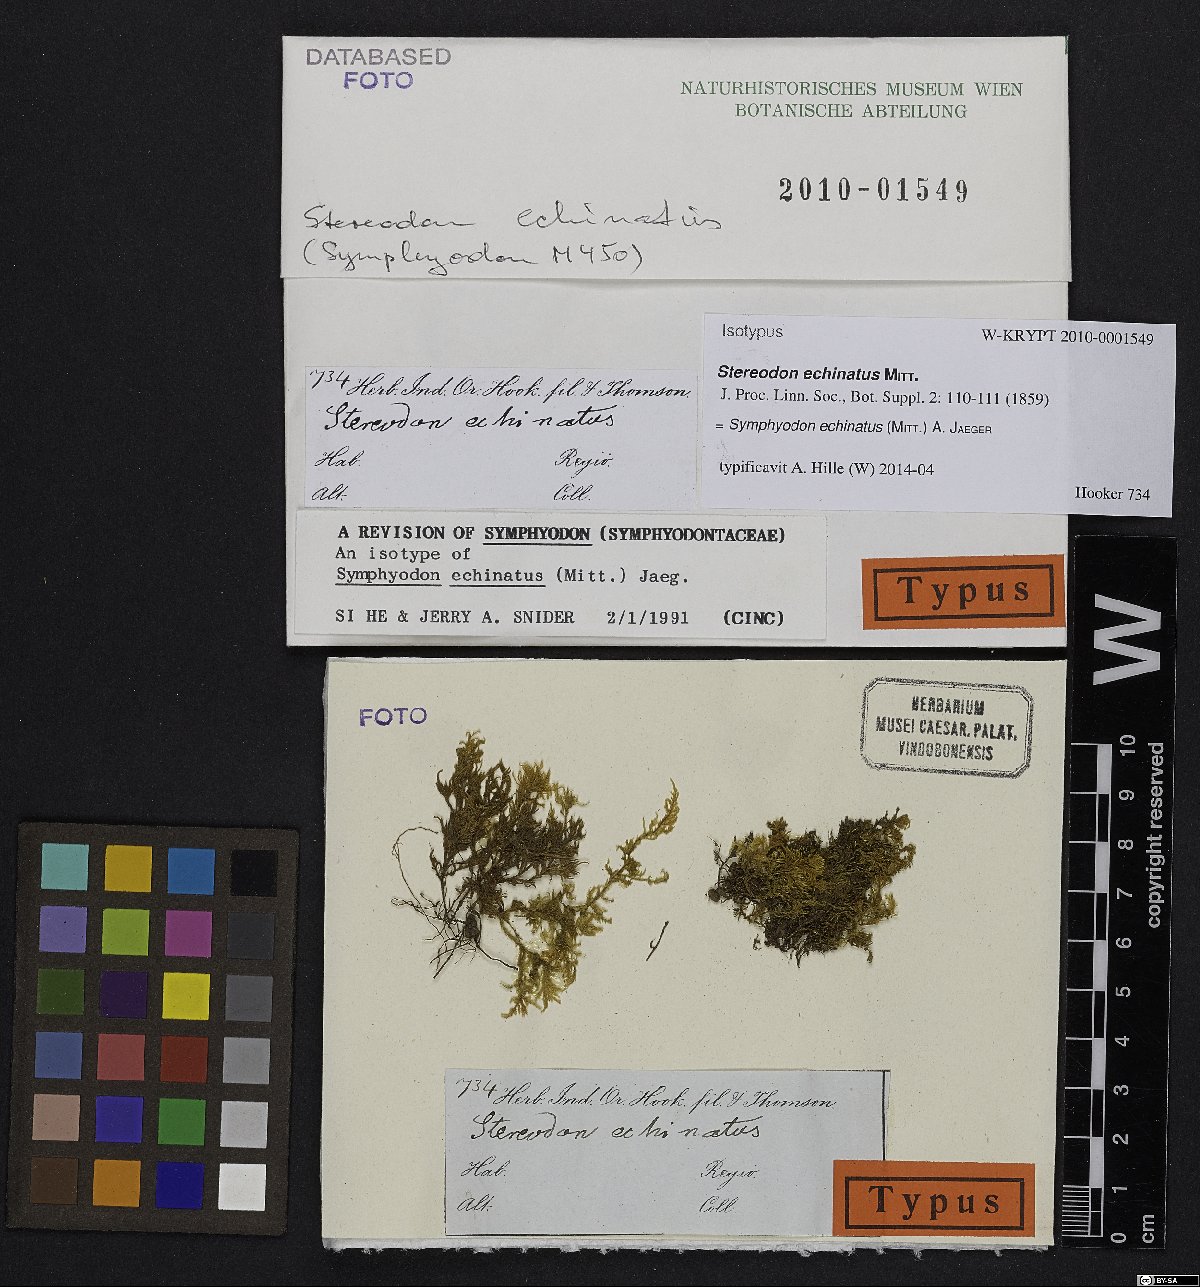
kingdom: Plantae
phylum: Bryophyta
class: Bryopsida
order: Hypnales
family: Symphyodontaceae
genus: Symphyodon
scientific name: Symphyodon echinatus
